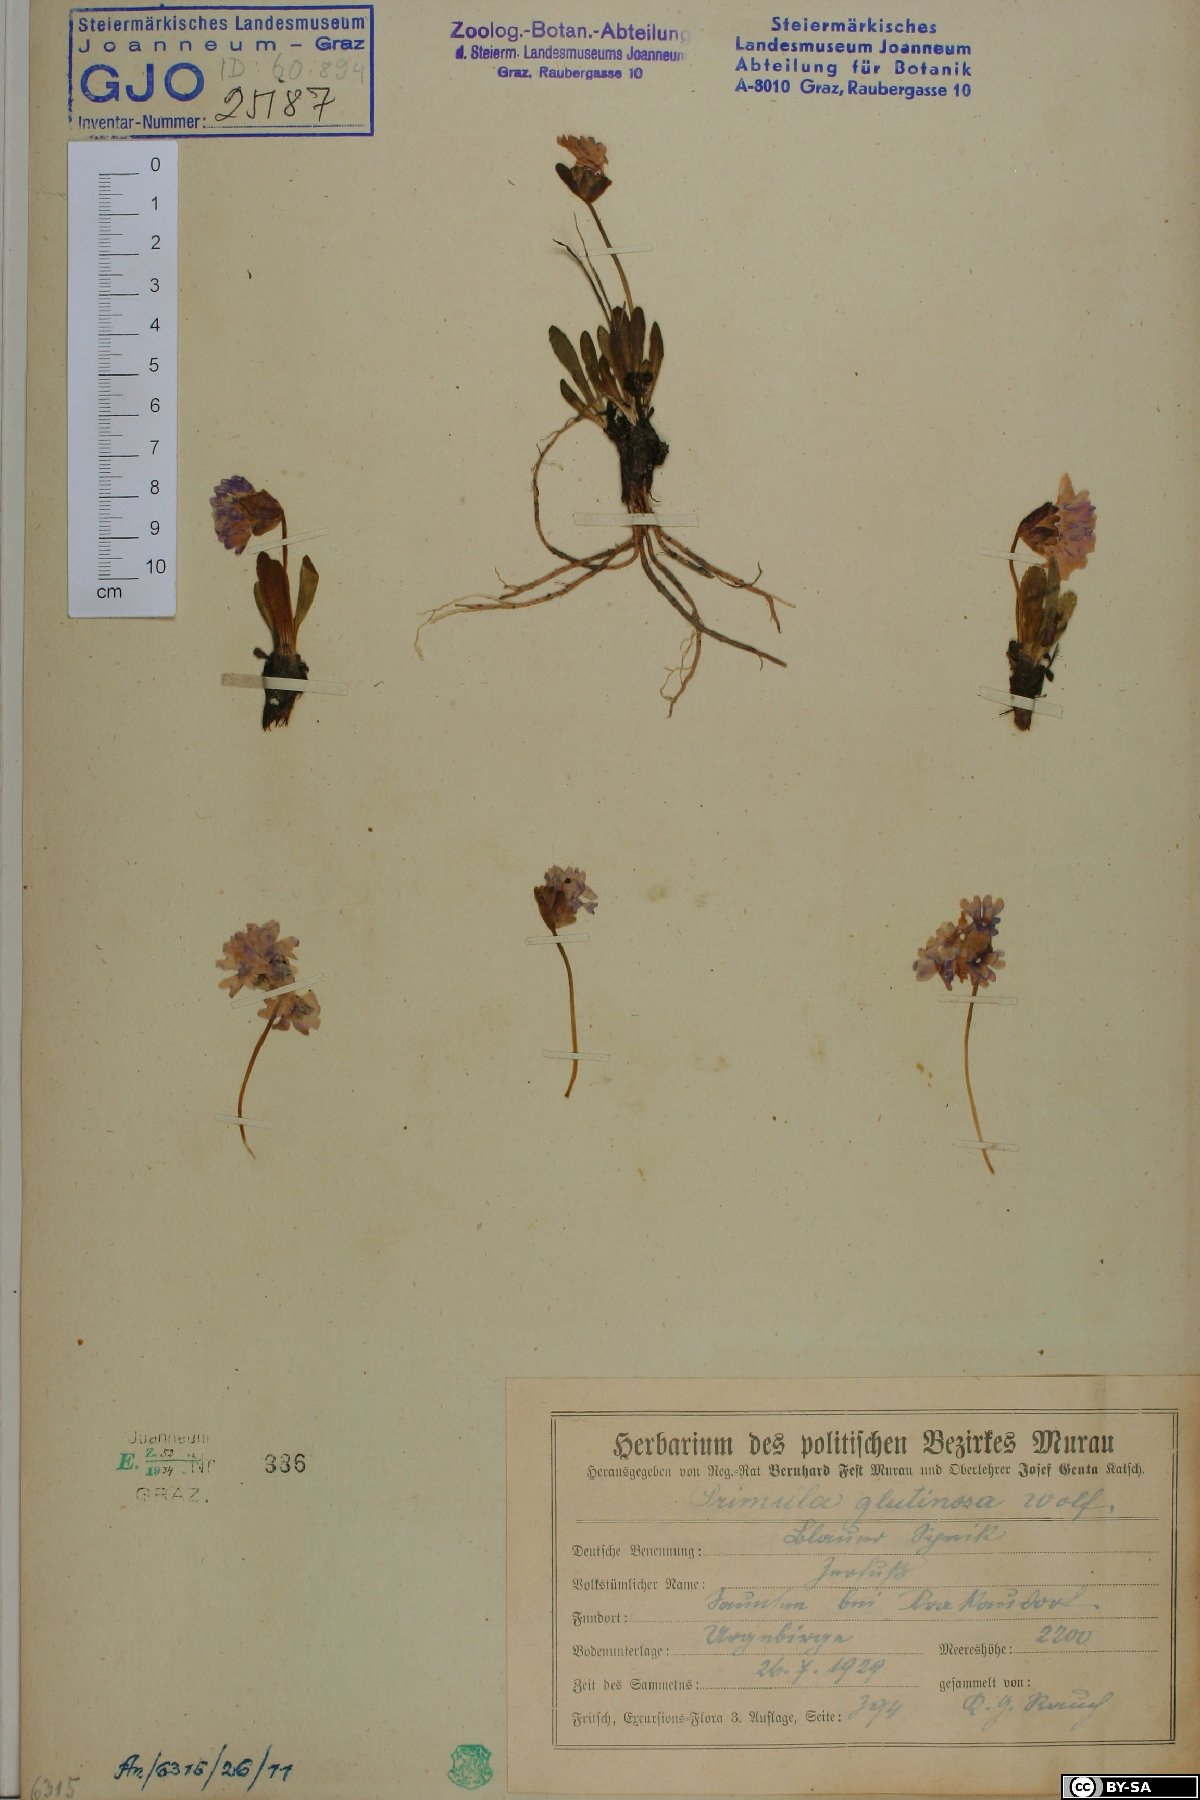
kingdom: Plantae
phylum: Tracheophyta
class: Magnoliopsida
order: Ericales
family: Primulaceae
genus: Primula
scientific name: Primula glutinosa
